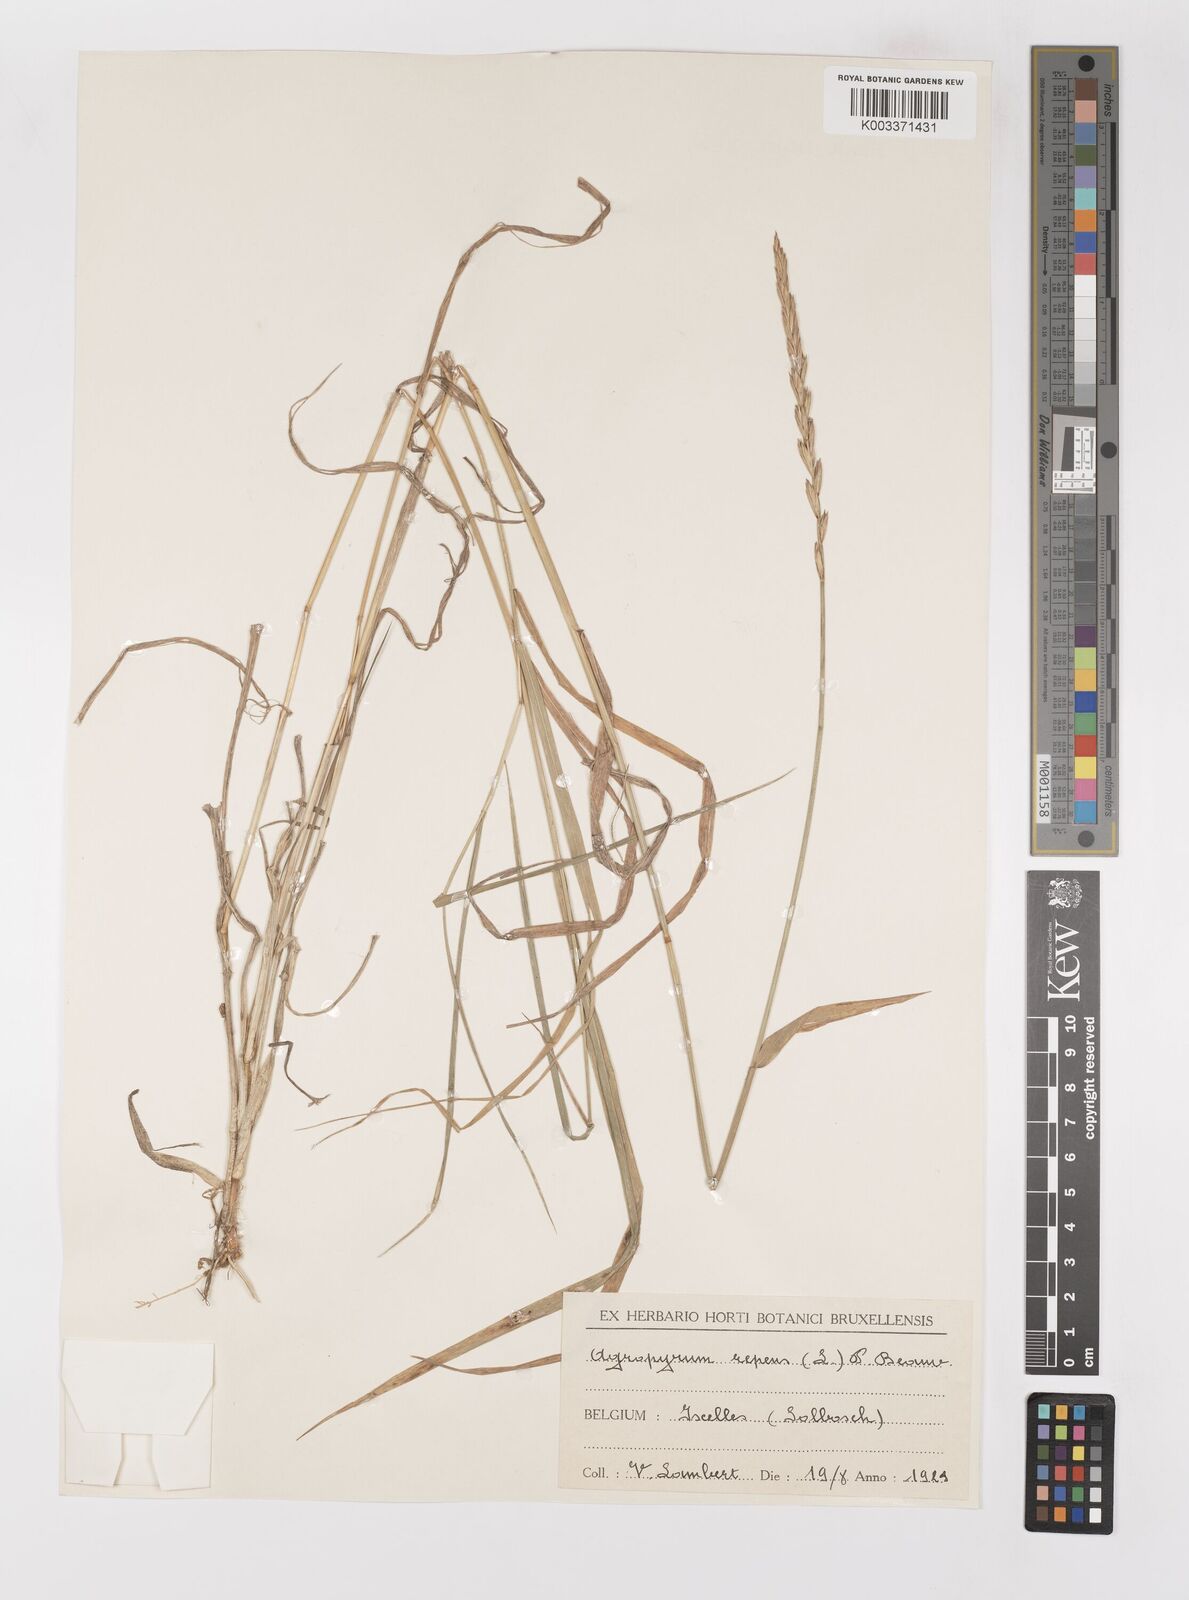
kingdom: Plantae
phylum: Tracheophyta
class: Liliopsida
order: Poales
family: Poaceae
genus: Elymus
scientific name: Elymus repens
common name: Quackgrass
